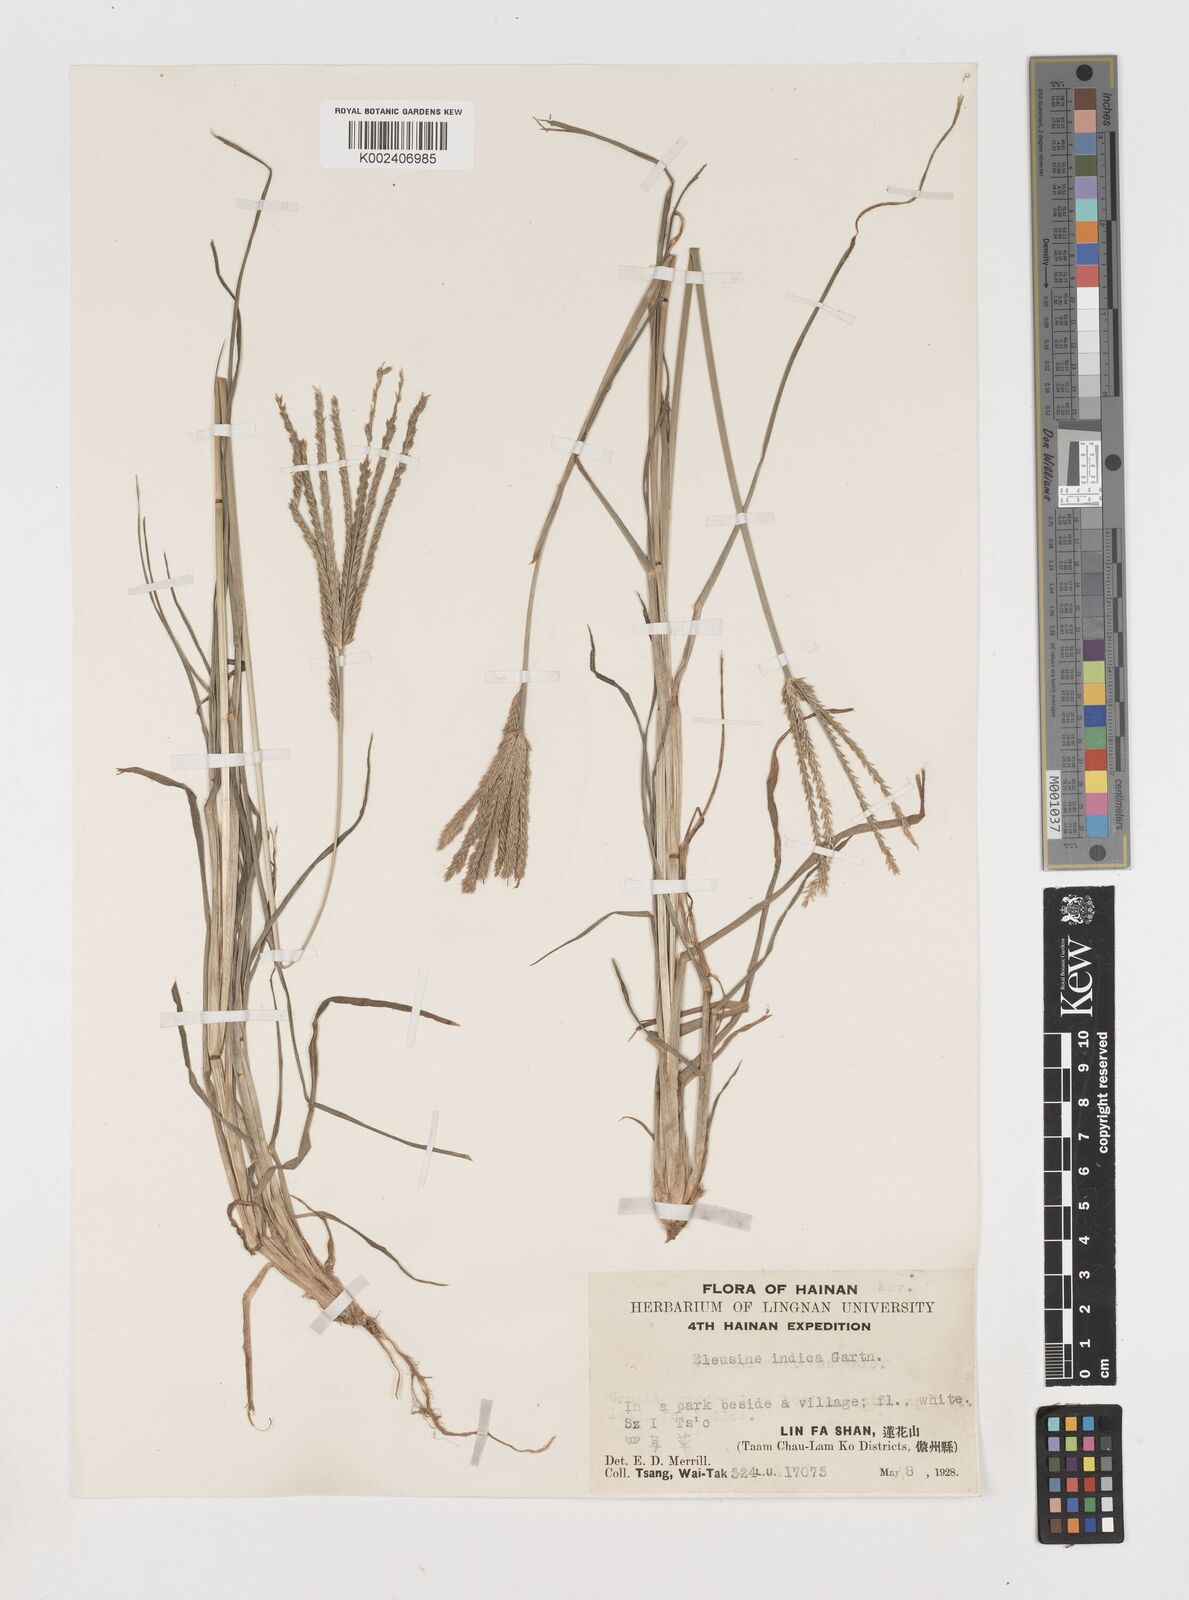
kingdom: Plantae
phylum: Tracheophyta
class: Liliopsida
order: Poales
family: Poaceae
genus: Eleusine
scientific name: Eleusine indica
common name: Yard-grass
